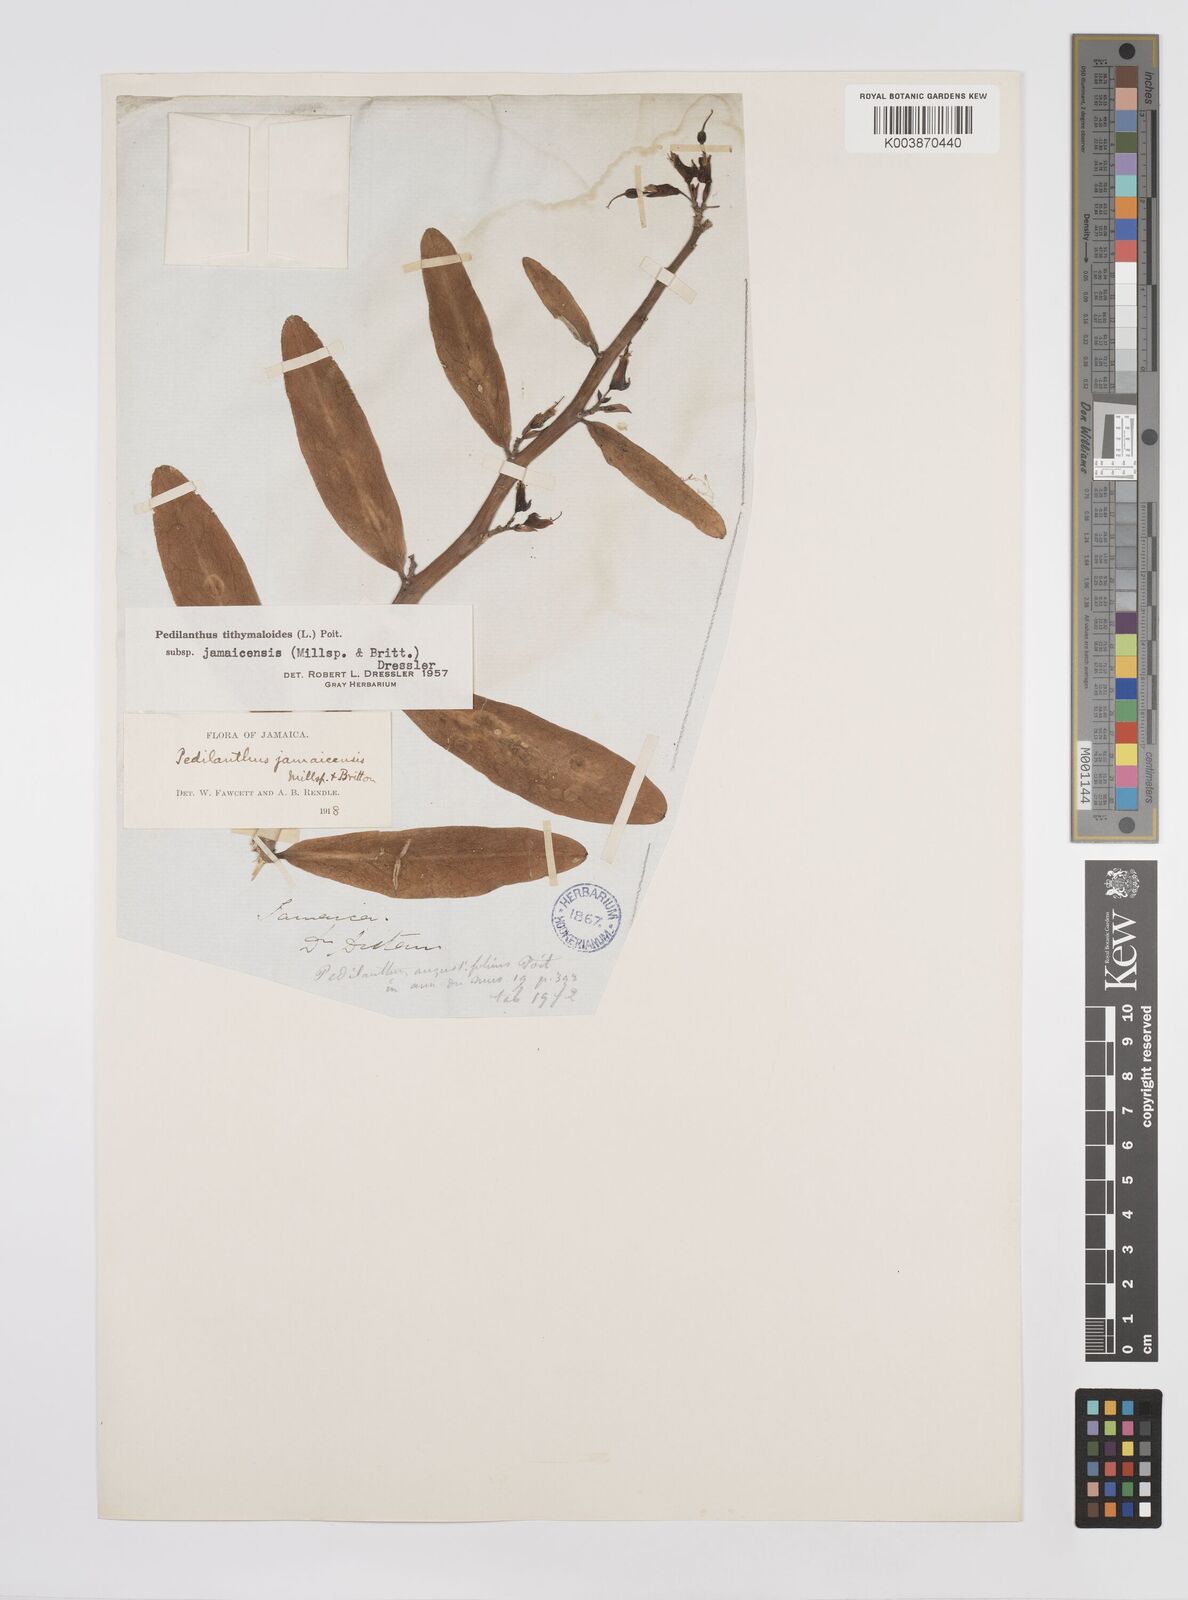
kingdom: Plantae
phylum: Tracheophyta
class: Magnoliopsida
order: Malpighiales
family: Euphorbiaceae
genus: Euphorbia
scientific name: Euphorbia tithymaloides
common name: Slipperplant
